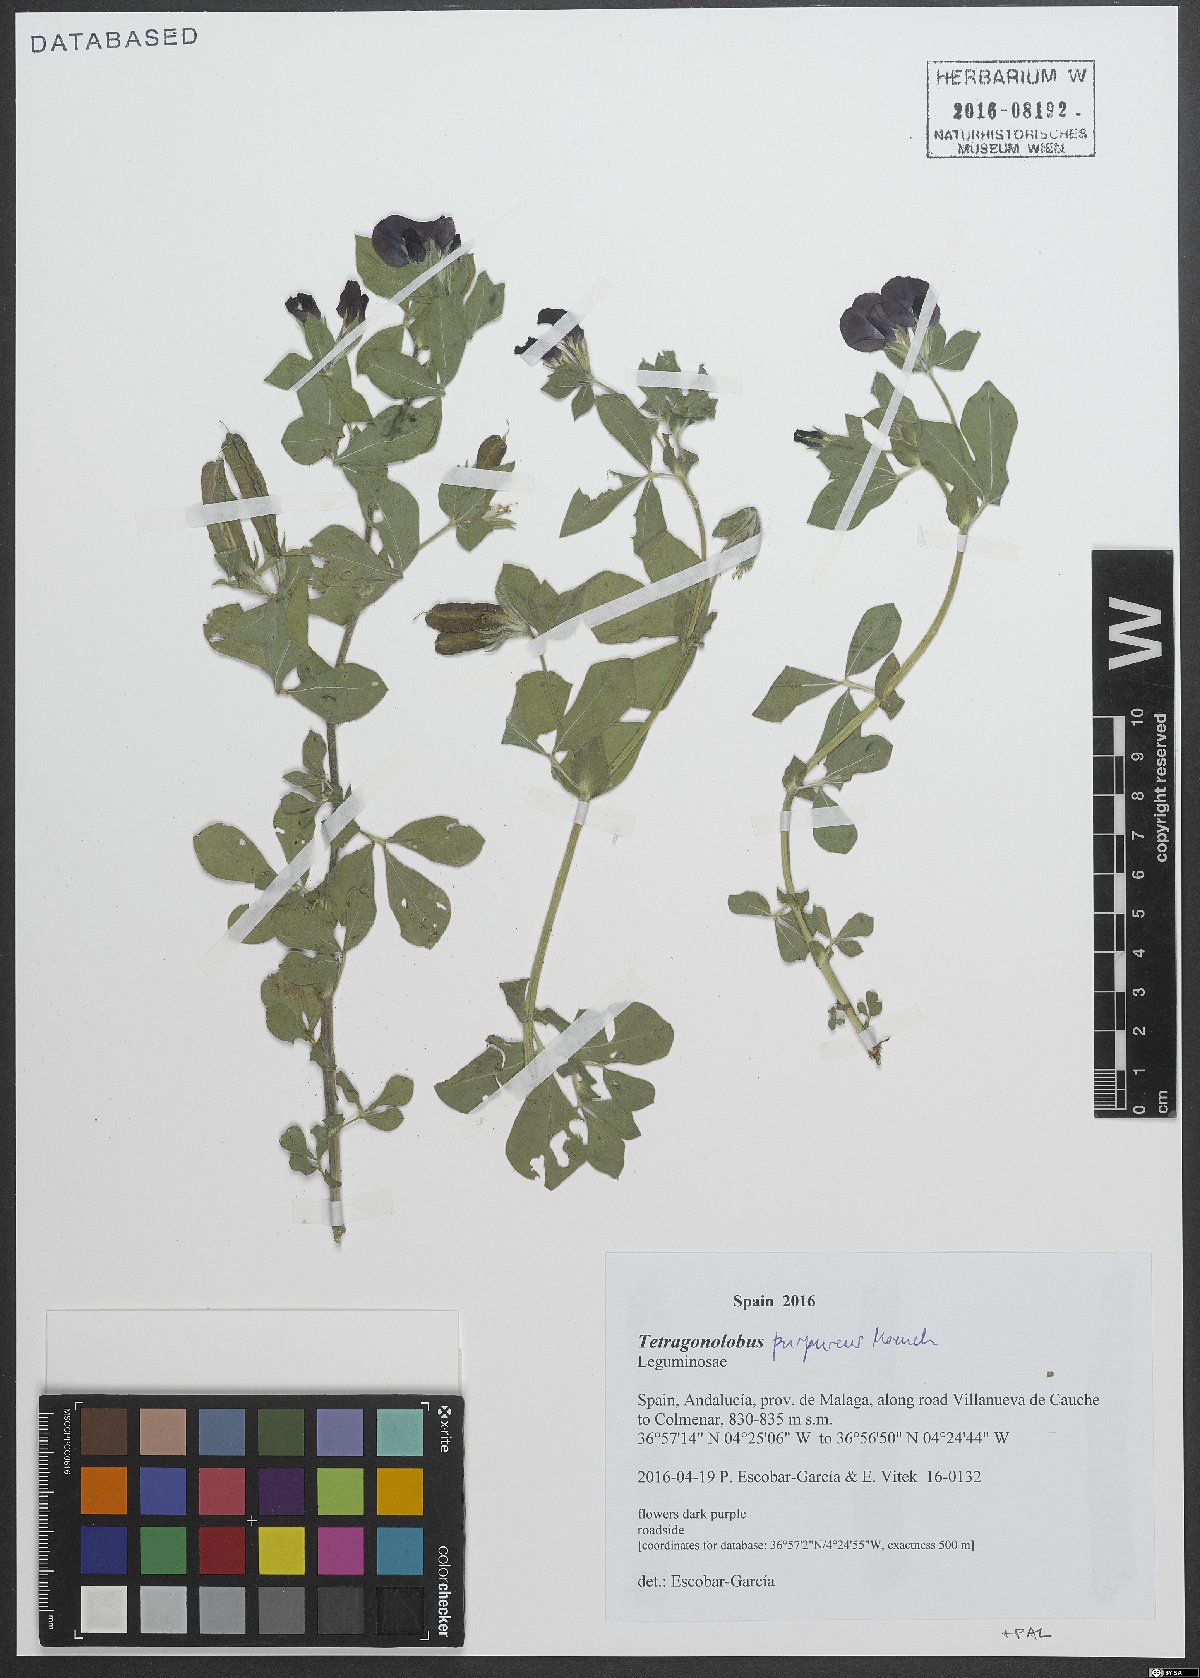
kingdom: Plantae
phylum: Tracheophyta
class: Magnoliopsida
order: Fabales
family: Fabaceae
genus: Lotus
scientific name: Lotus tetragonolobus
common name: Asparagus-pea
